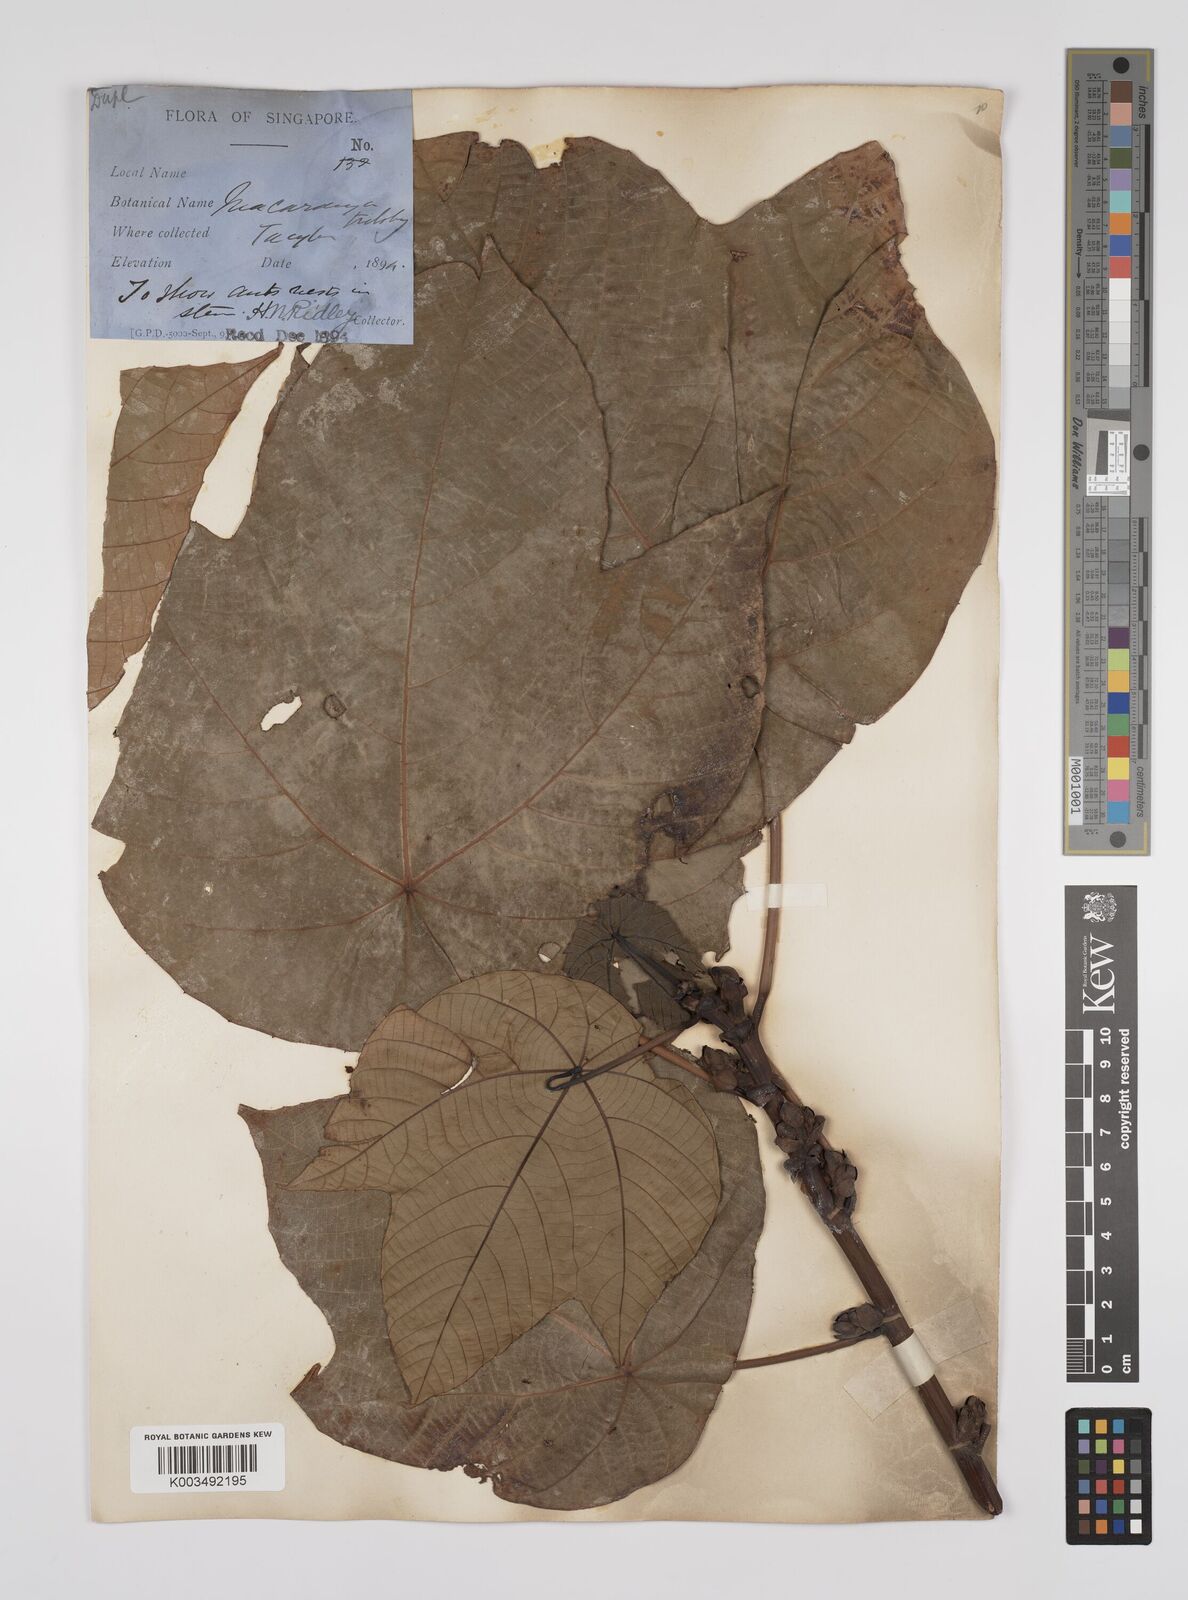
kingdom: Plantae
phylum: Tracheophyta
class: Magnoliopsida
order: Malpighiales
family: Euphorbiaceae
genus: Macaranga
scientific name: Macaranga triloba
